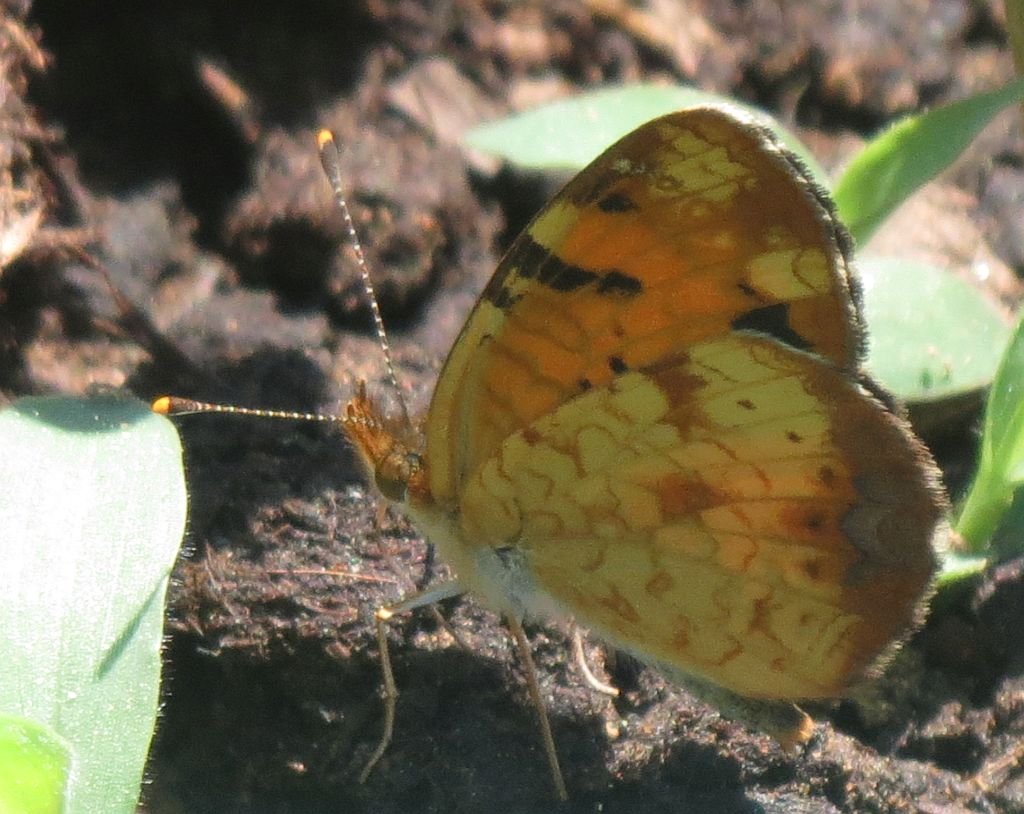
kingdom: Animalia
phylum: Arthropoda
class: Insecta
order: Lepidoptera
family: Nymphalidae
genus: Phyciodes
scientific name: Phyciodes tharos
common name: Northern Crescent
